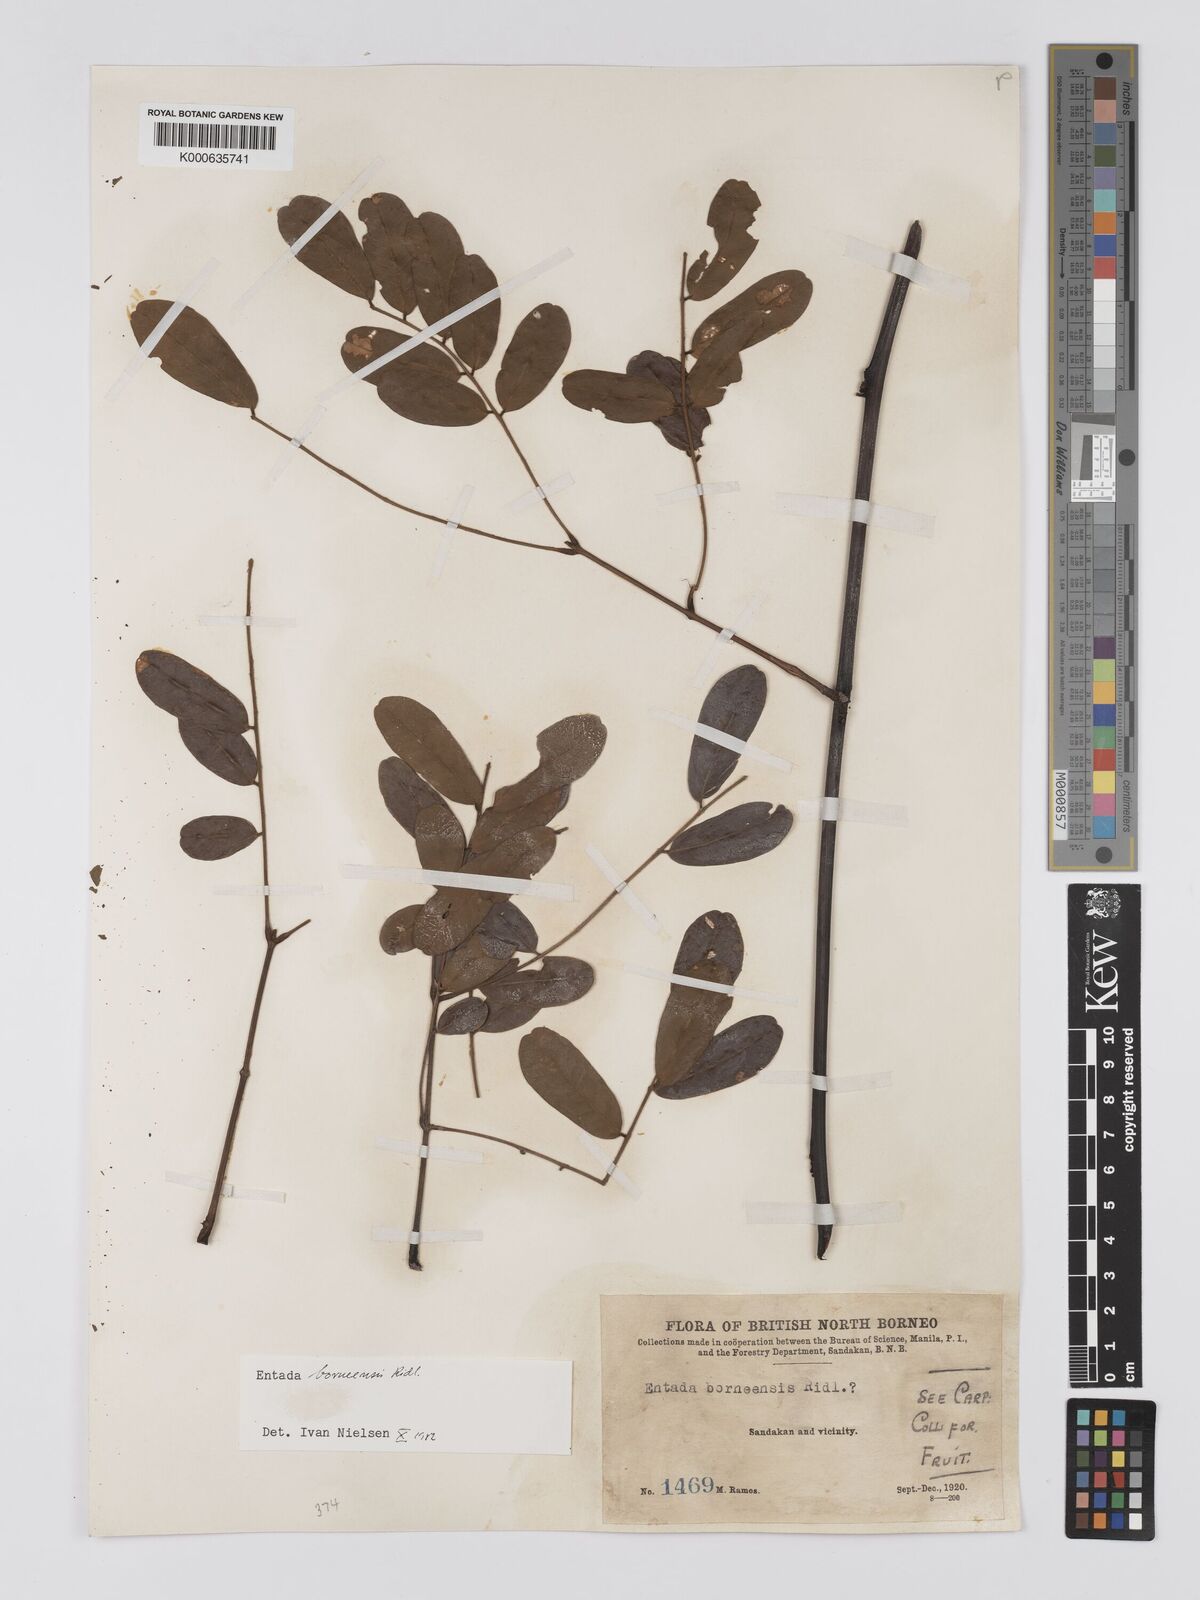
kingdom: Plantae
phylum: Tracheophyta
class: Magnoliopsida
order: Fabales
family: Fabaceae
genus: Entada
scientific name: Entada borneensis
